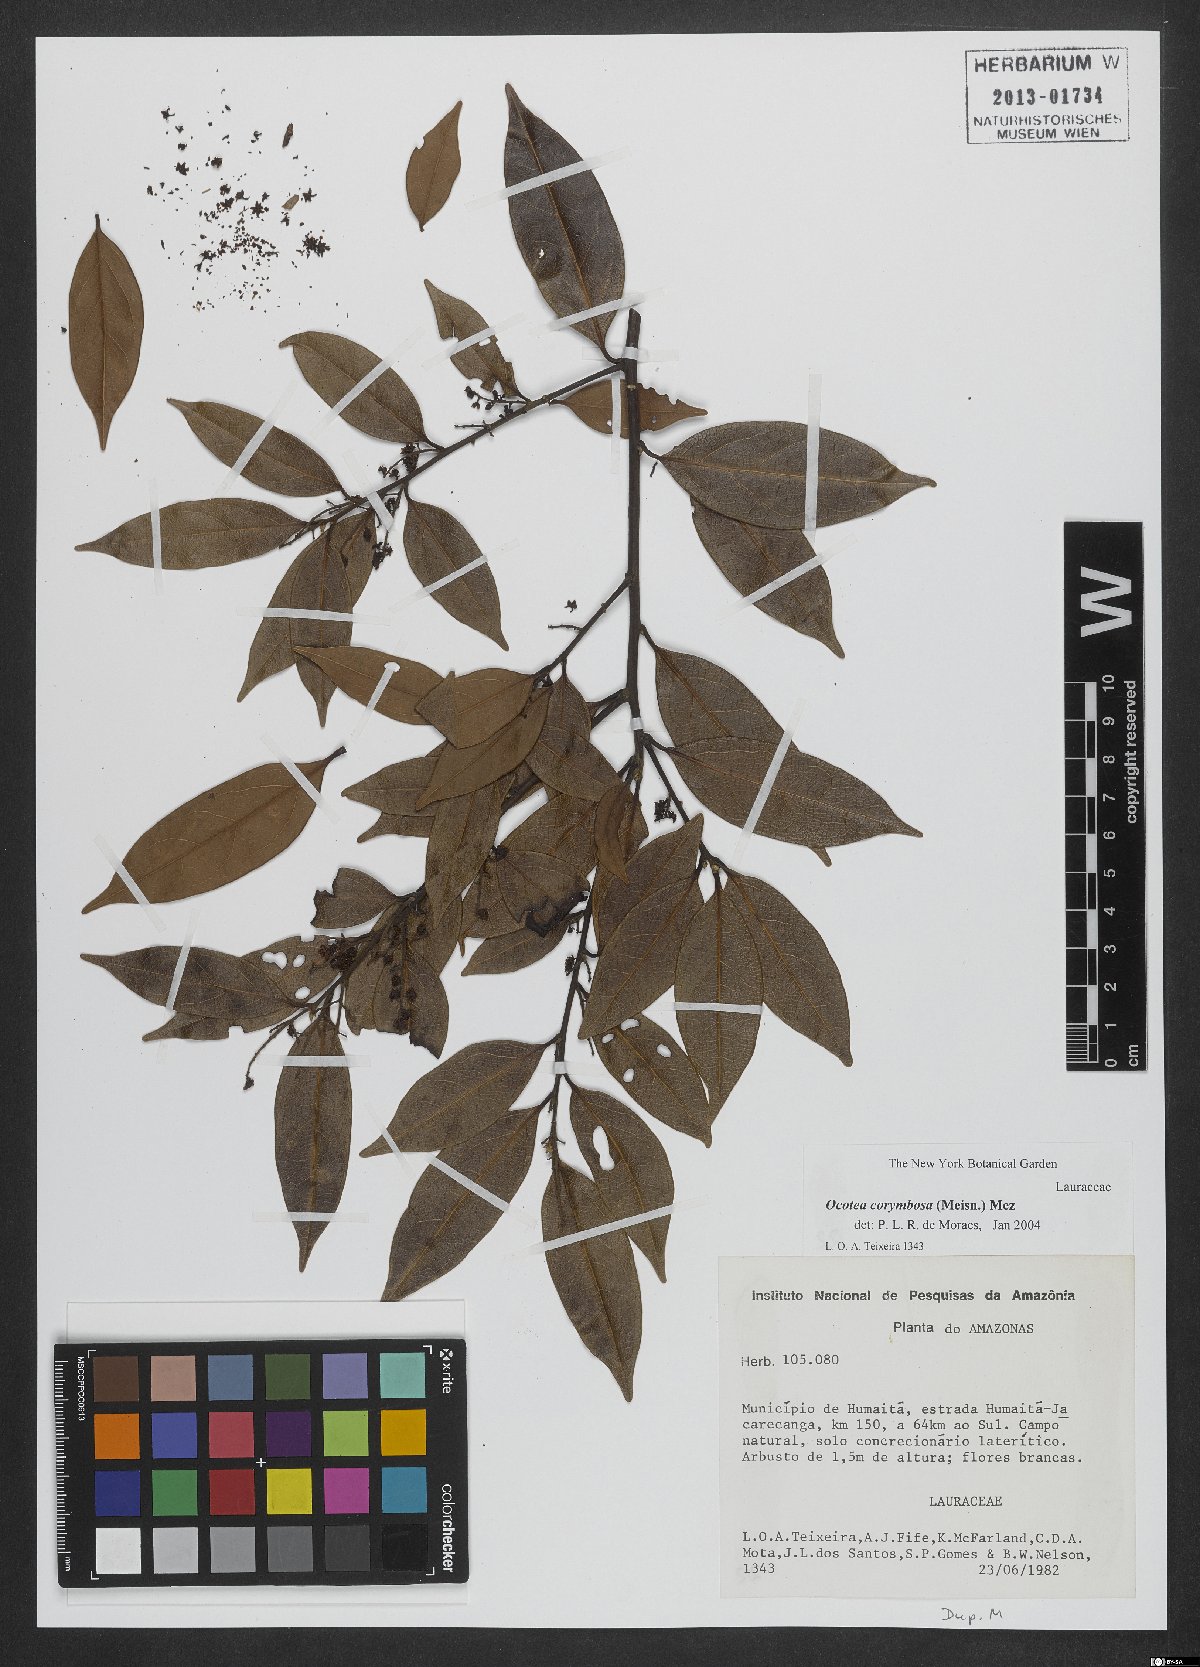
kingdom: Plantae
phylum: Tracheophyta
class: Magnoliopsida
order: Laurales
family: Lauraceae
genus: Mespilodaphne
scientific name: Mespilodaphne corymbosa
